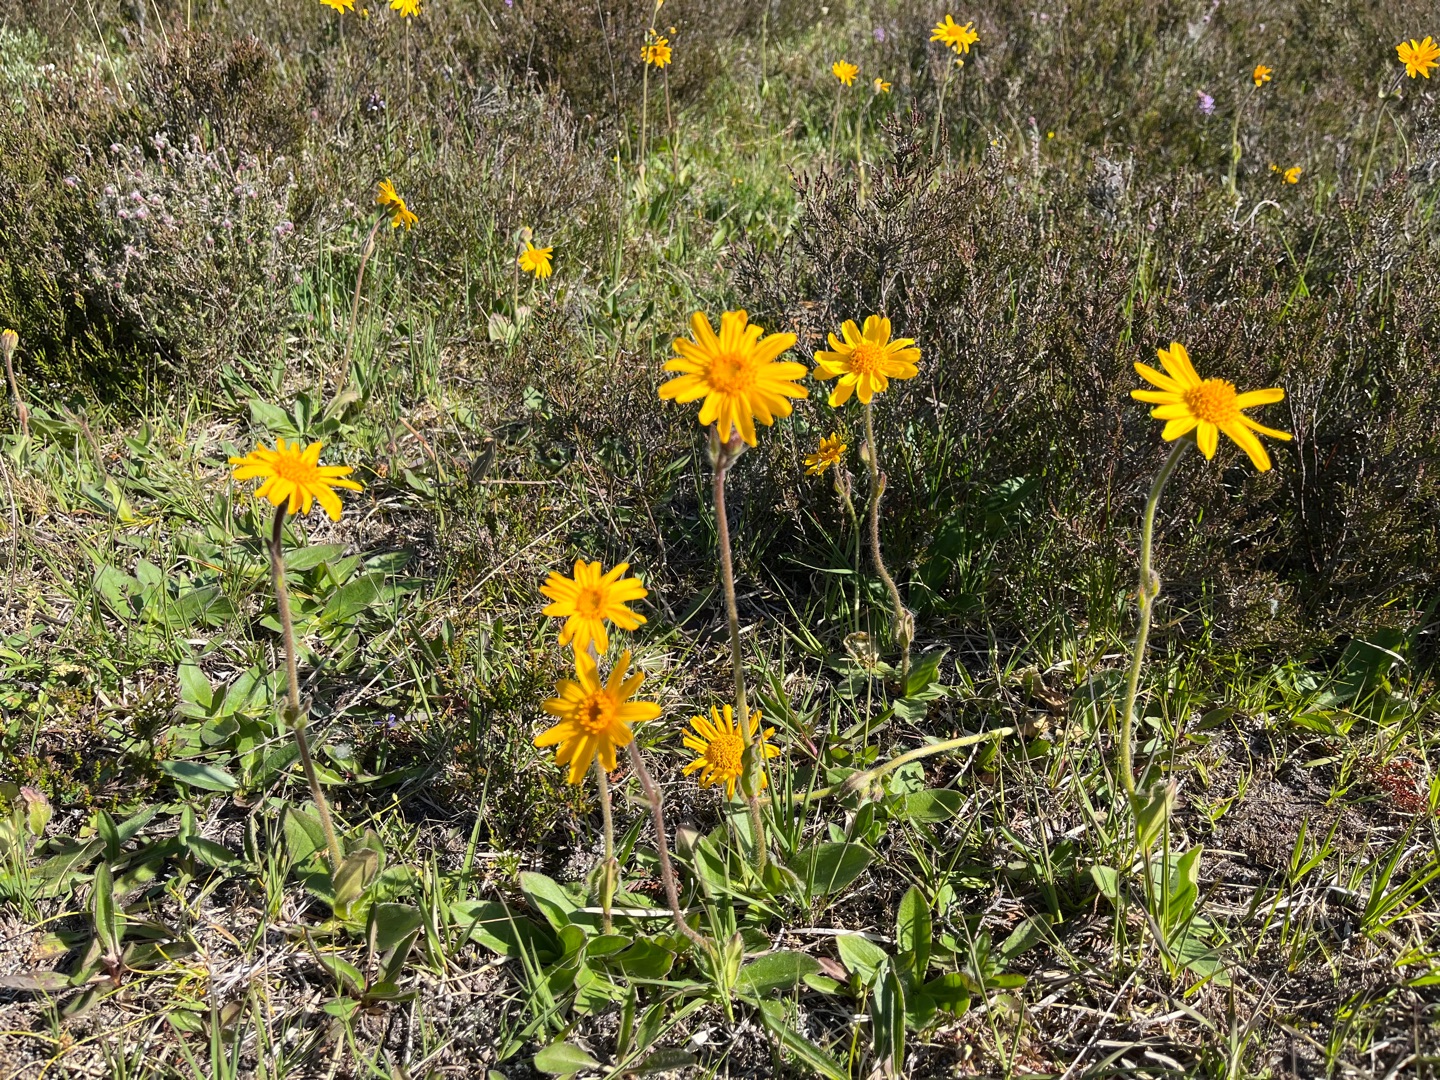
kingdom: Plantae
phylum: Tracheophyta
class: Magnoliopsida
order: Asterales
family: Asteraceae
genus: Arnica
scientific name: Arnica montana
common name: Guldblomme
